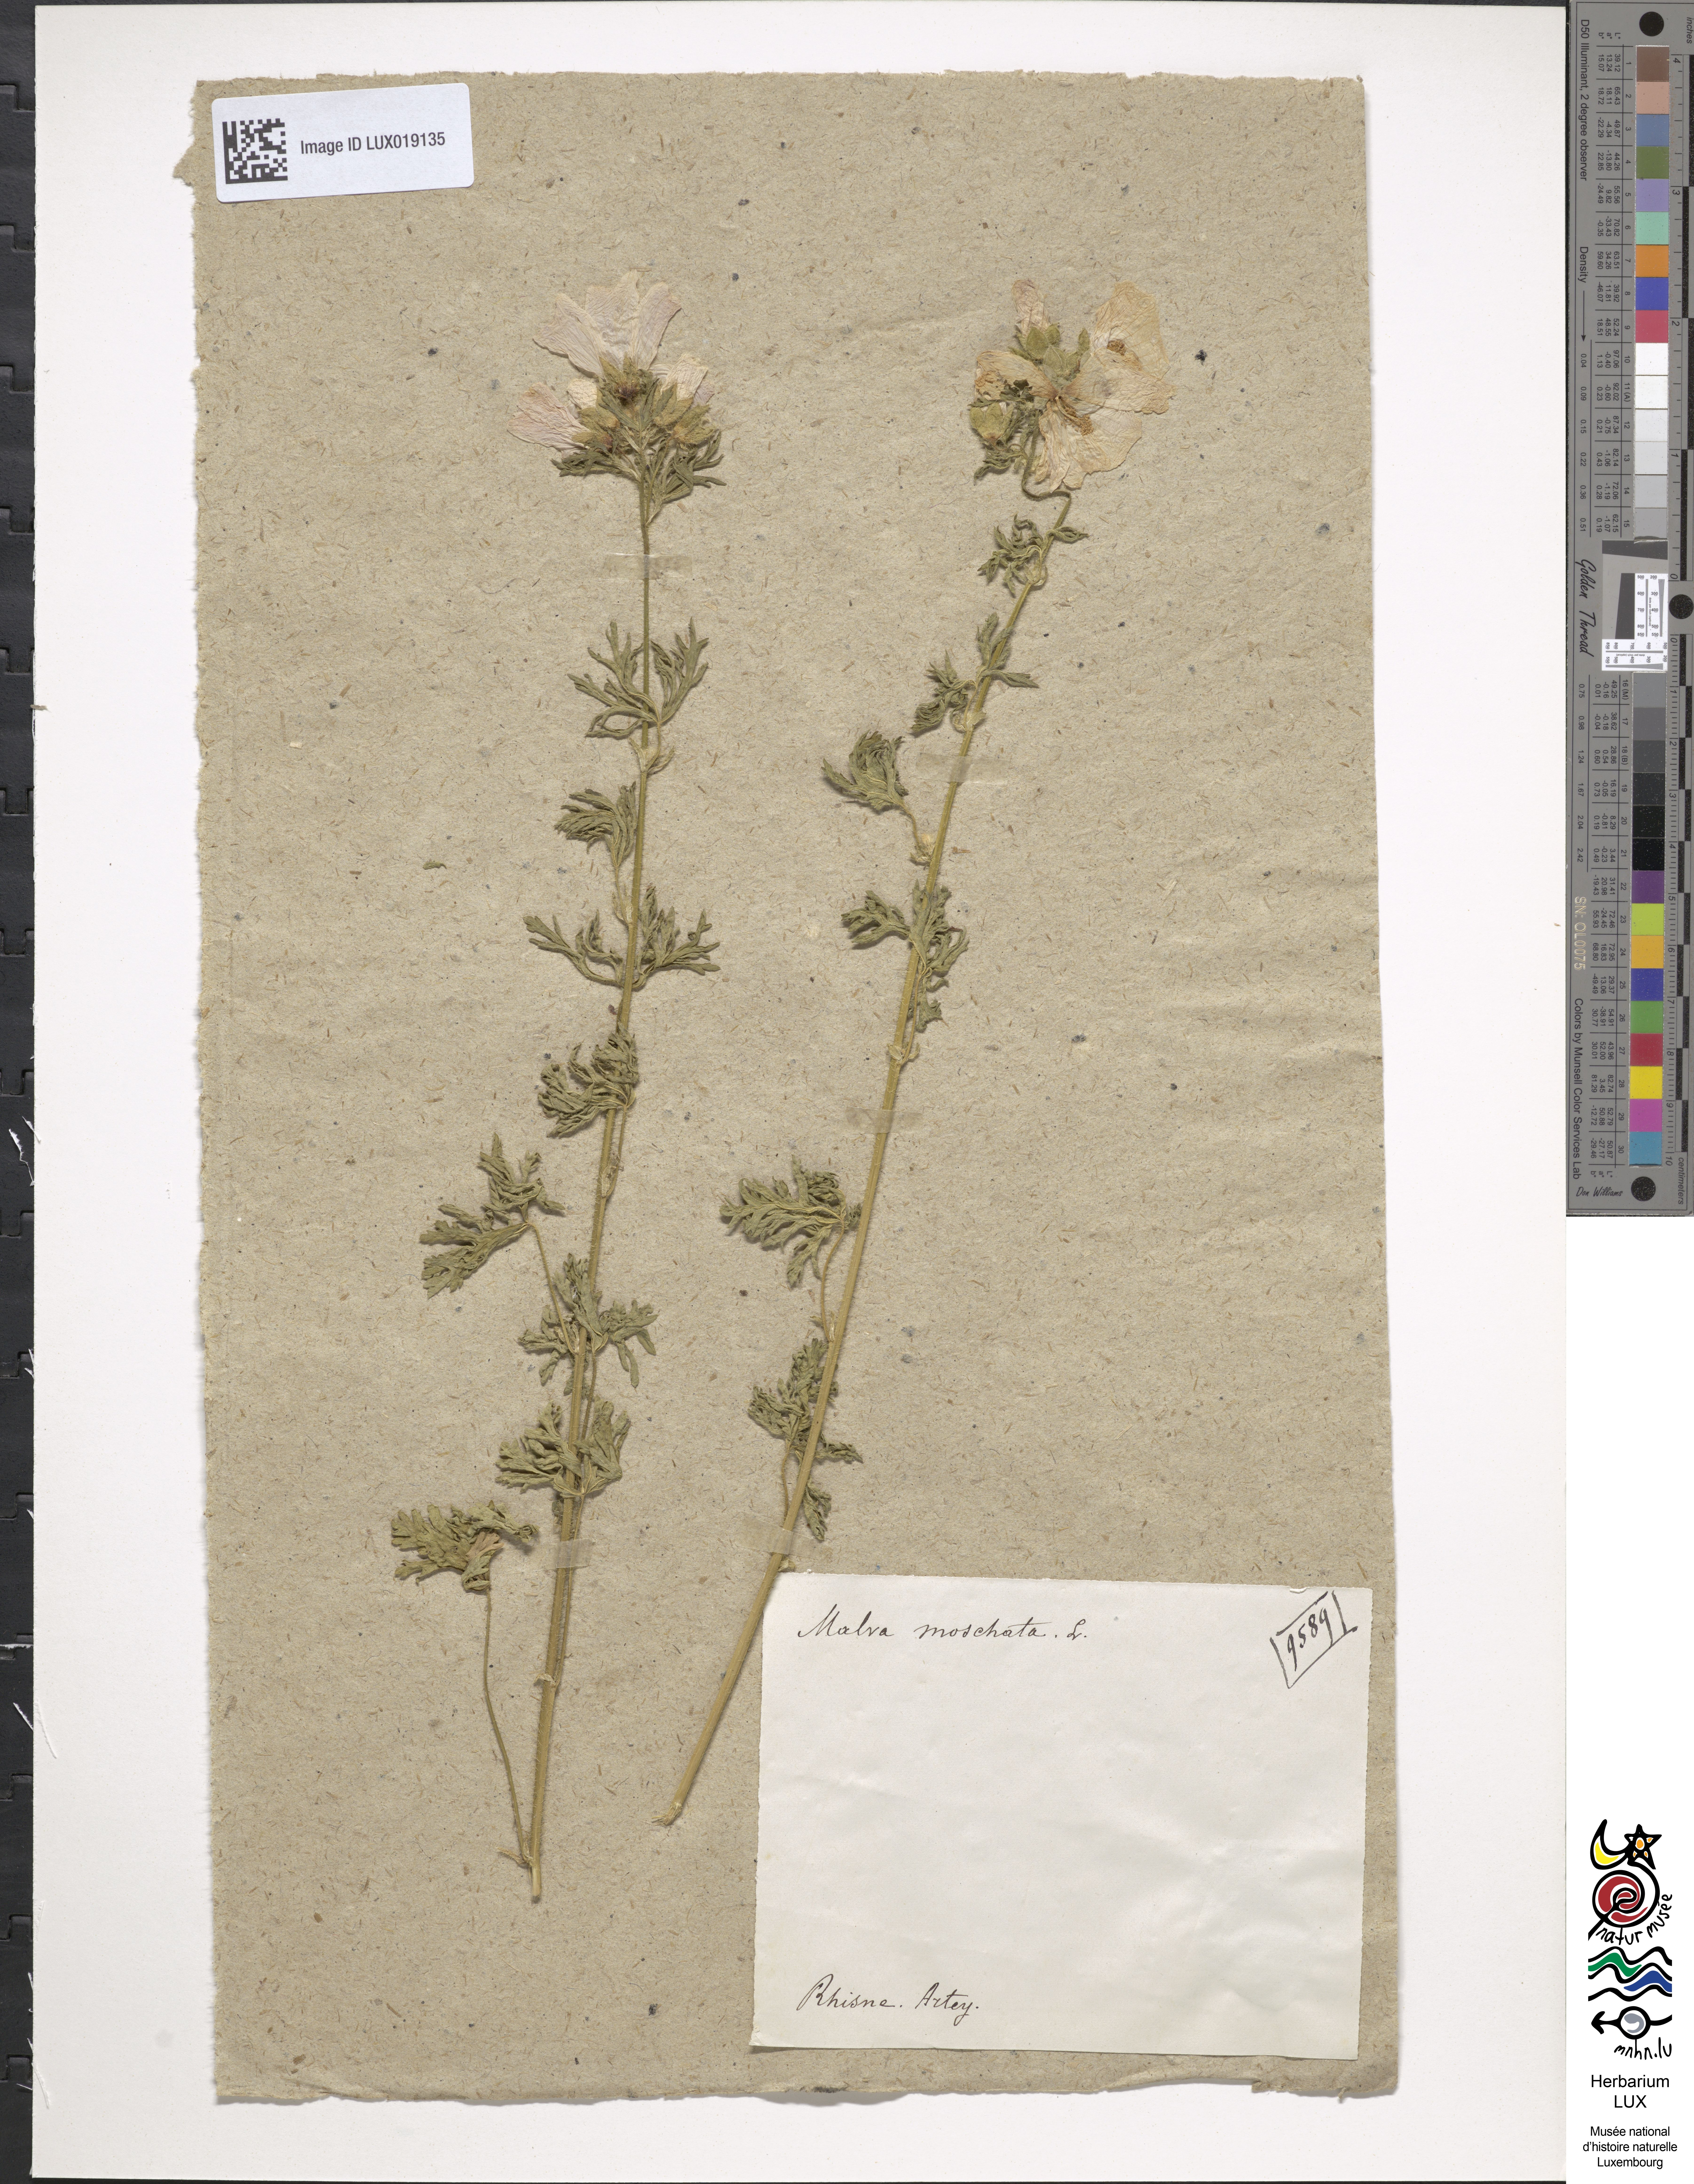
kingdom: Plantae
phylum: Tracheophyta
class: Magnoliopsida
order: Malvales
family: Malvaceae
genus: Malva
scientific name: Malva moschata
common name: Musk mallow
